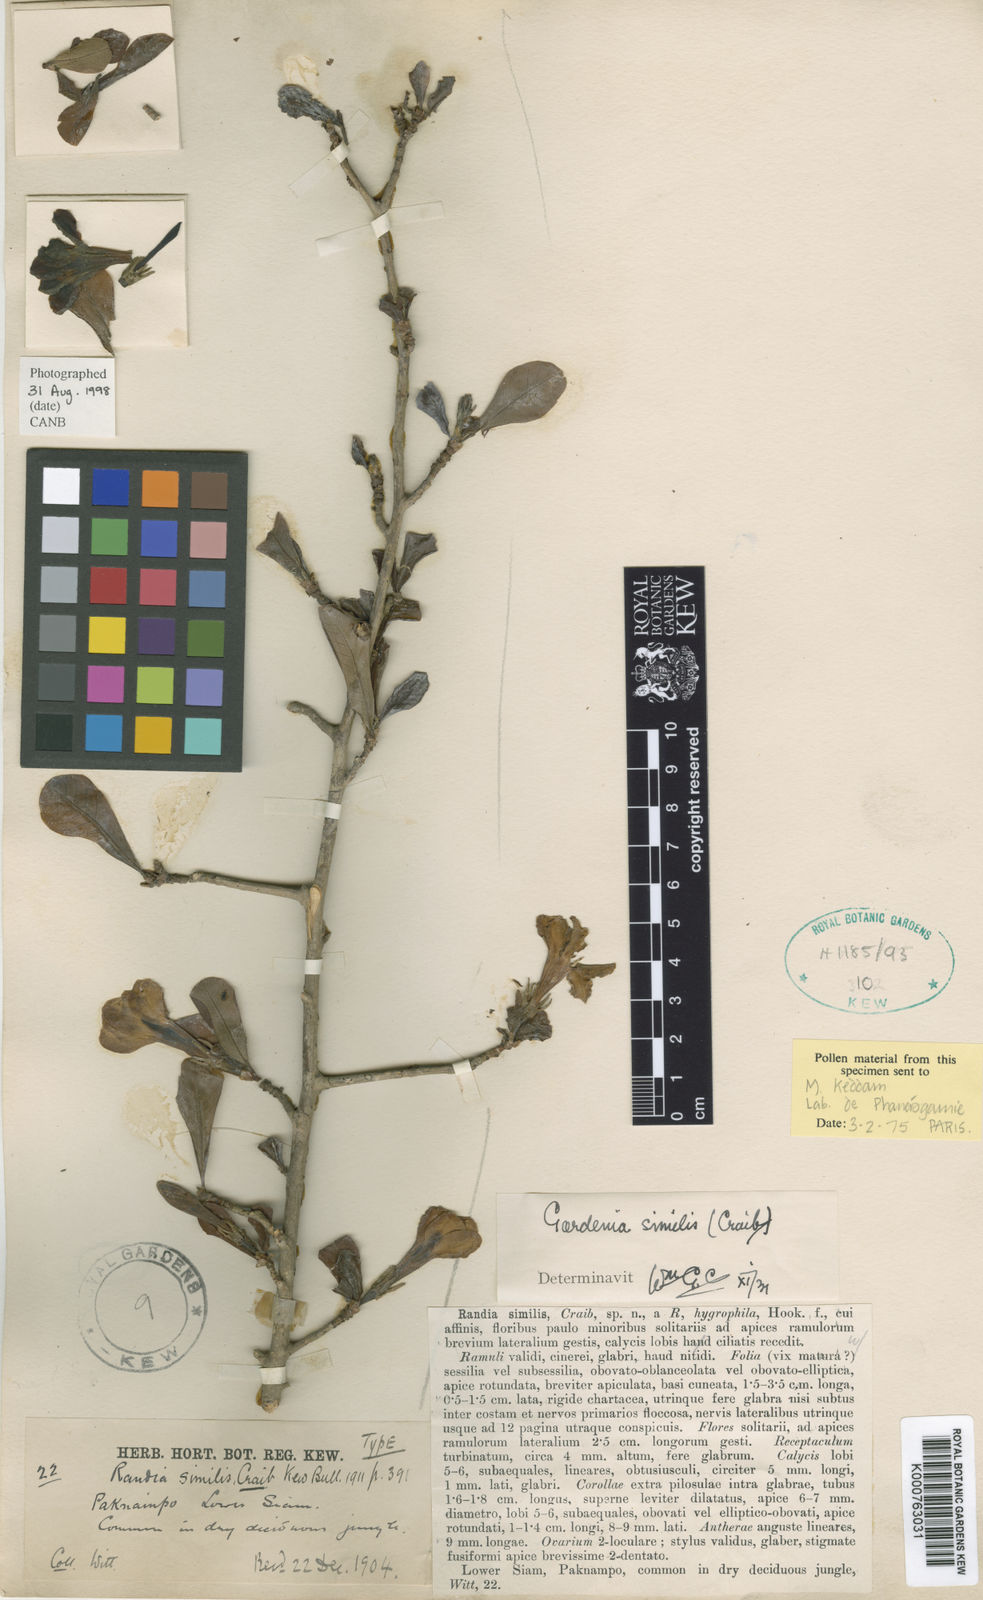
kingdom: Plantae
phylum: Tracheophyta
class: Magnoliopsida
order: Gentianales
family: Rubiaceae
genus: Gardenia
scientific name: Gardenia similis
